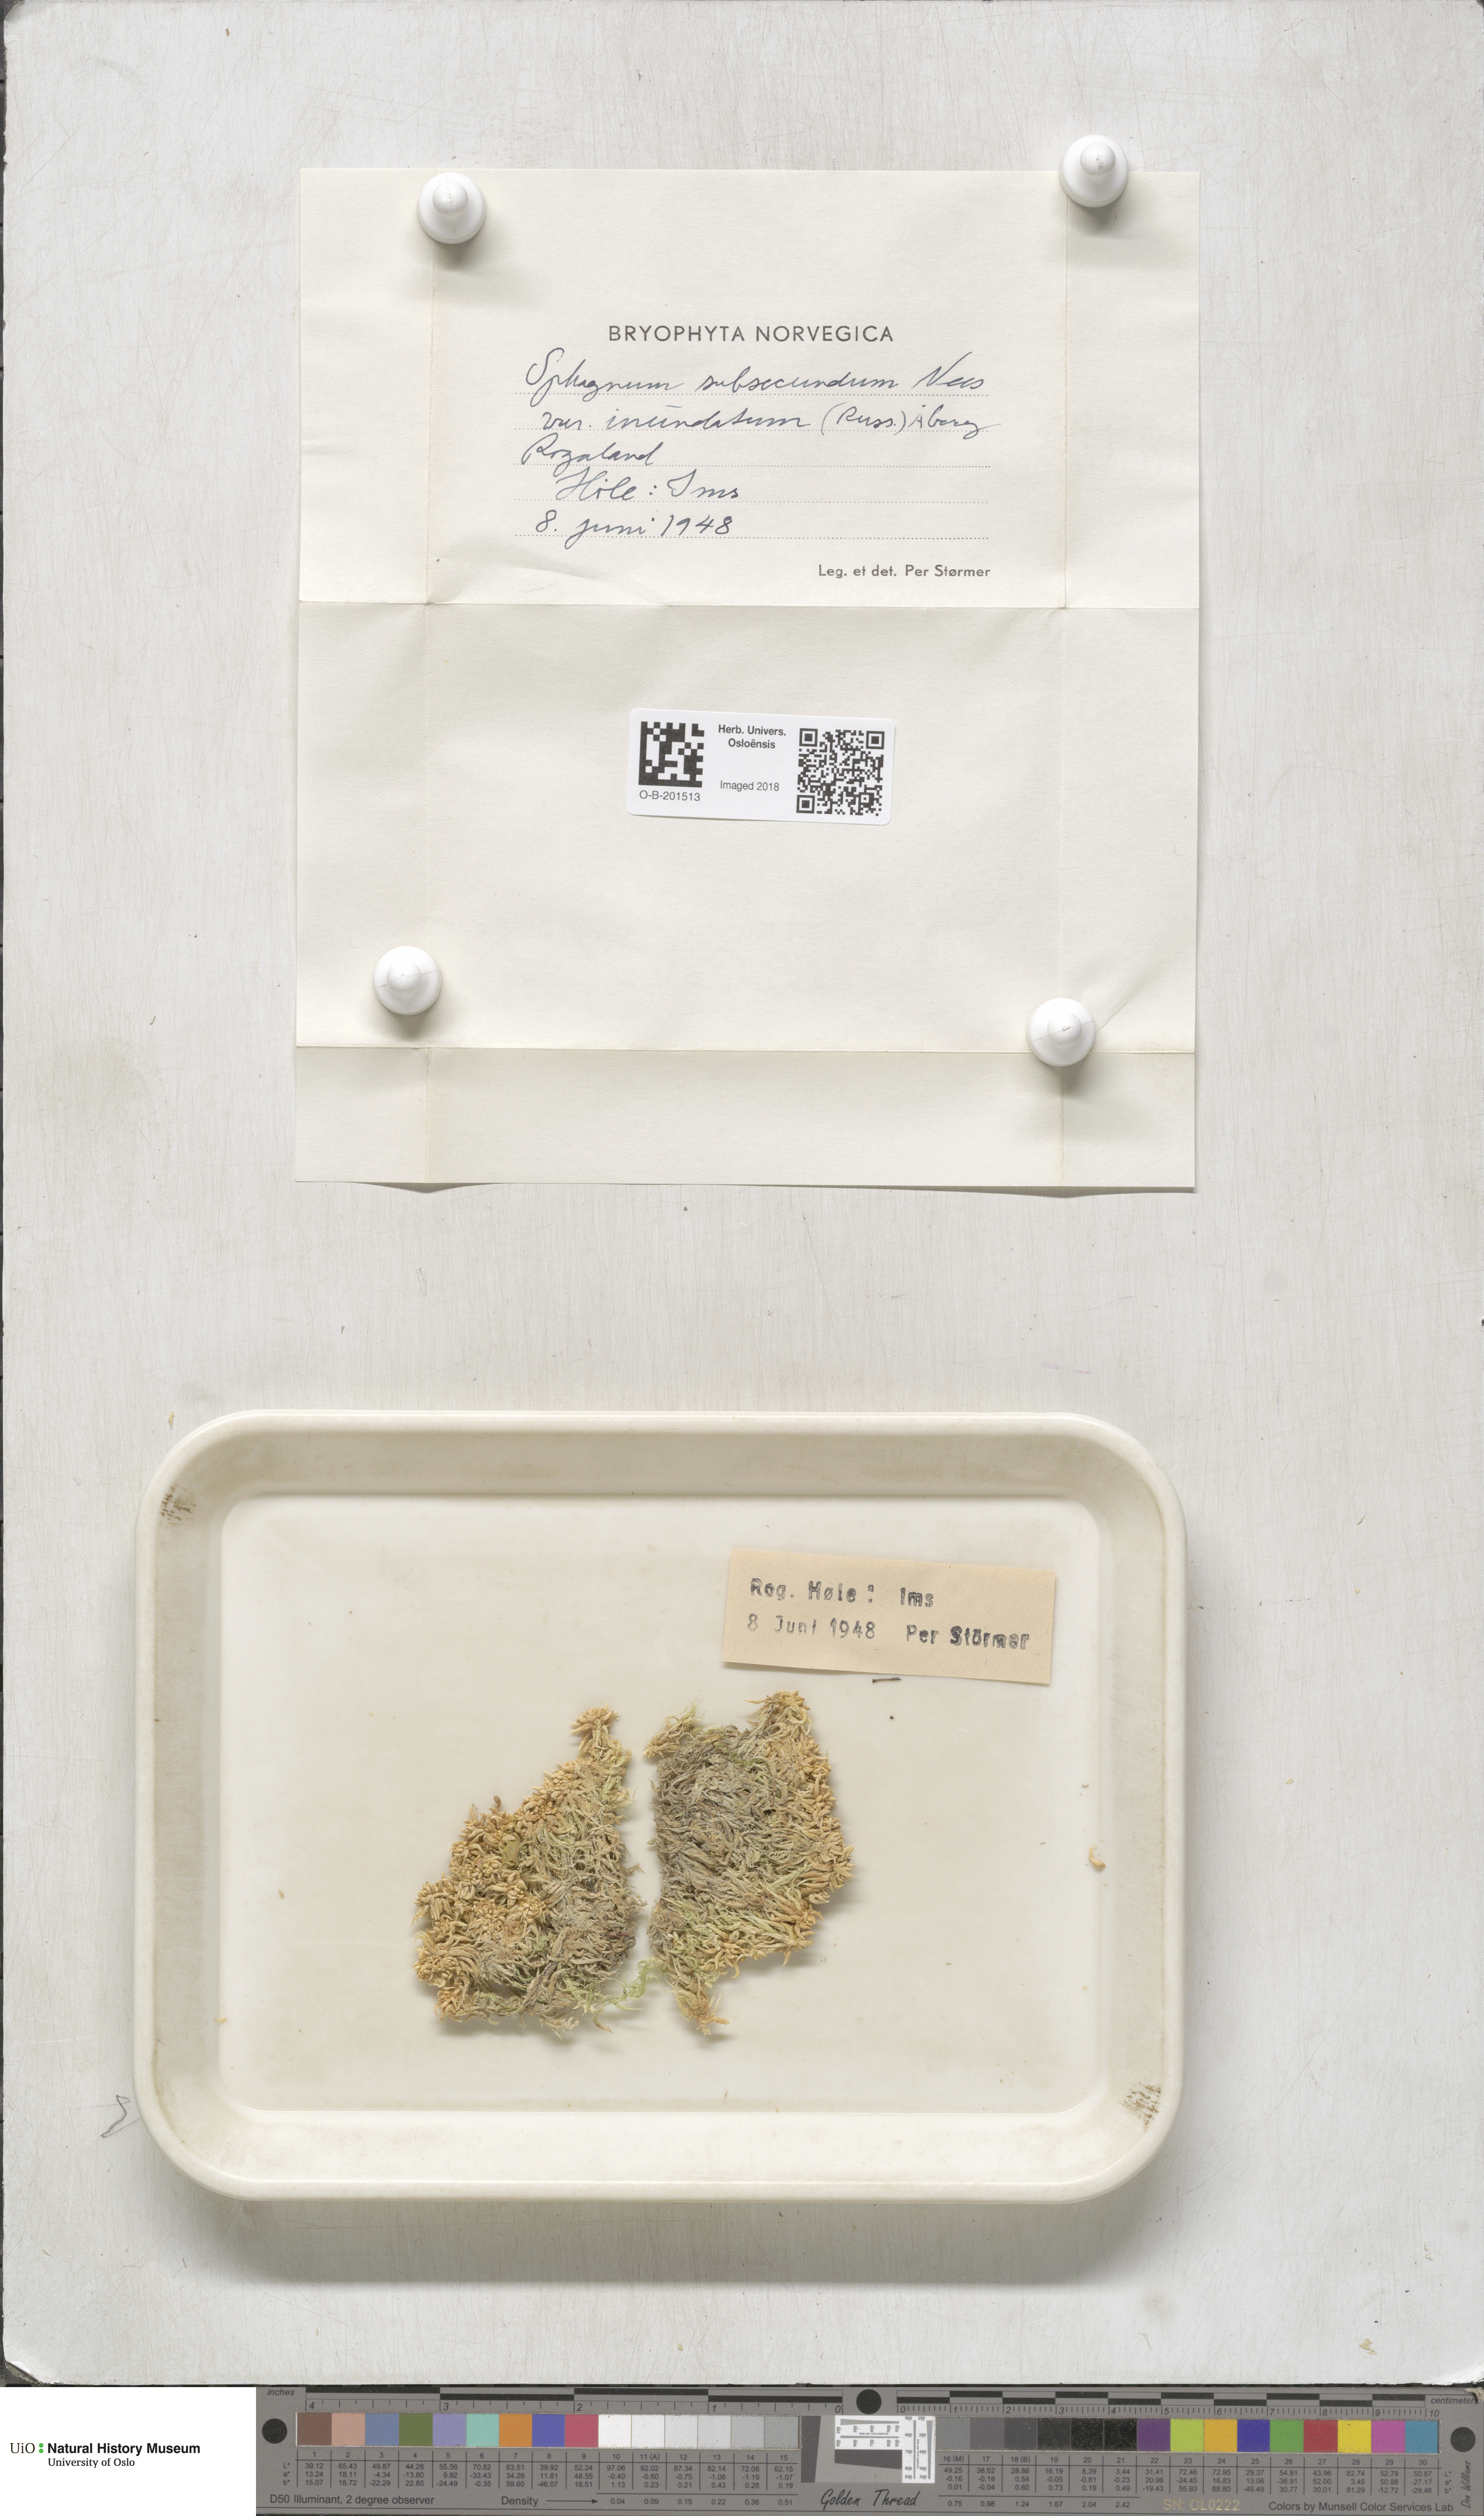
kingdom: Plantae
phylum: Bryophyta
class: Sphagnopsida
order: Sphagnales
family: Sphagnaceae
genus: Sphagnum
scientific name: Sphagnum inundatum
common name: Lesser cow-horn bog-moss
